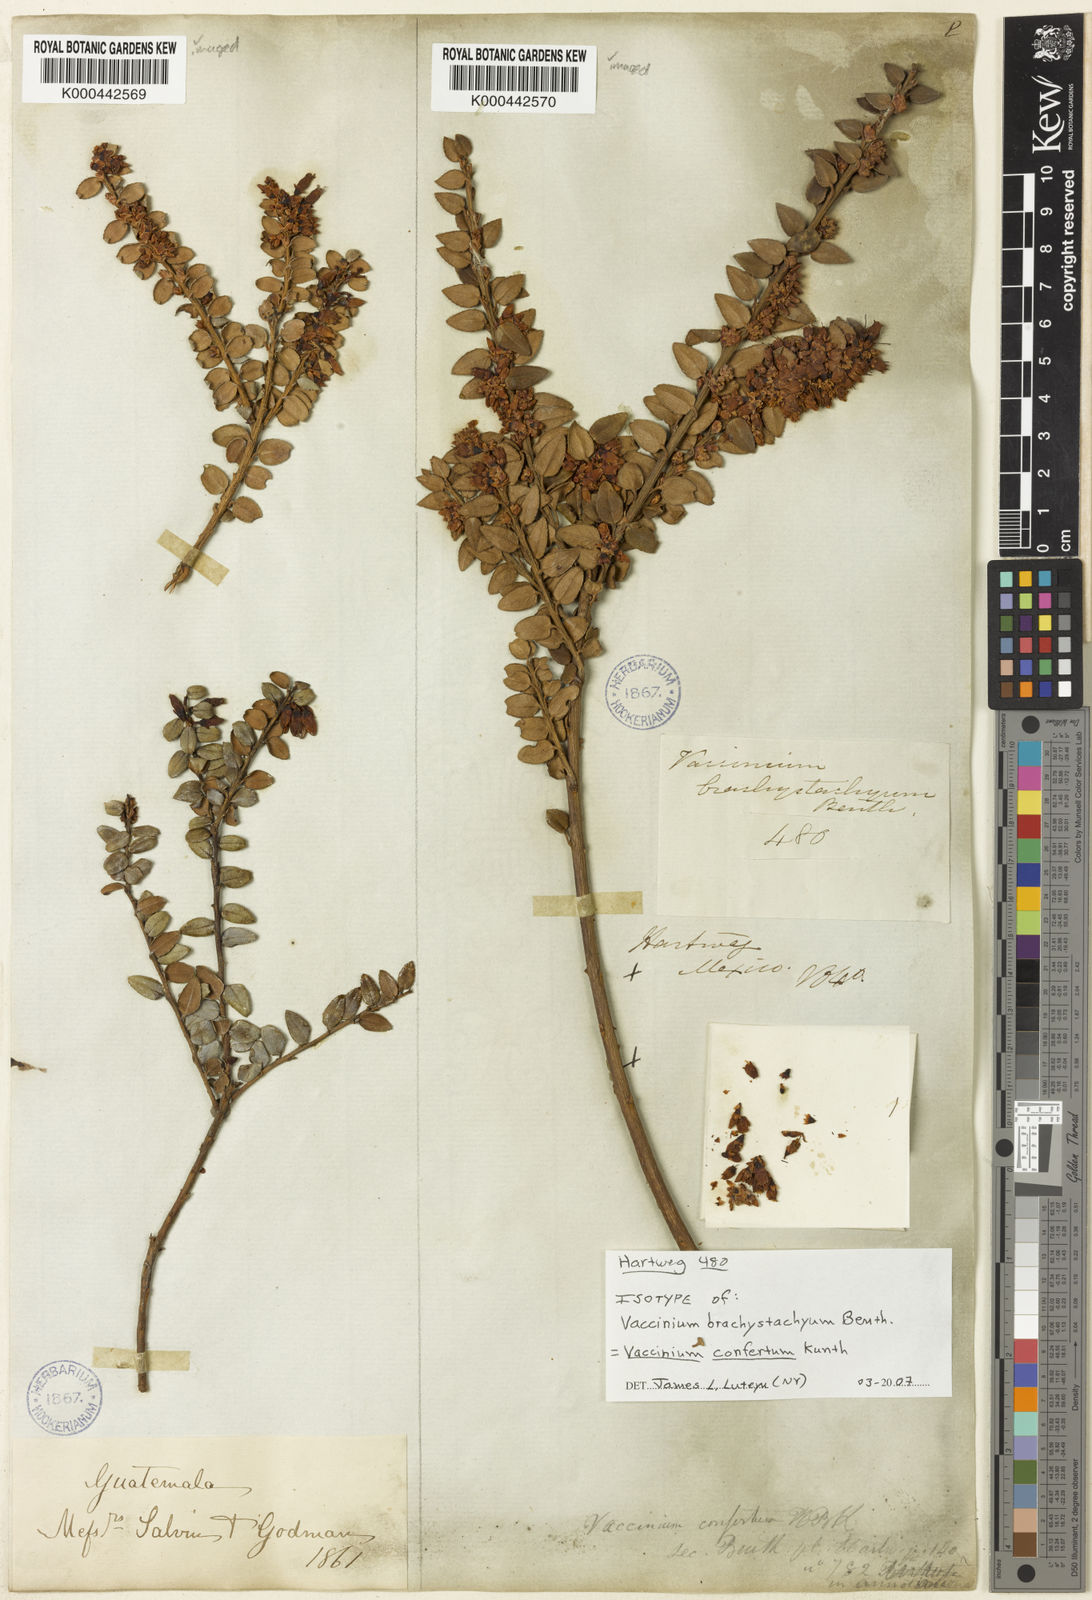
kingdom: Plantae
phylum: Tracheophyta
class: Magnoliopsida
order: Ericales
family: Ericaceae
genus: Vaccinium
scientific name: Vaccinium confertum
